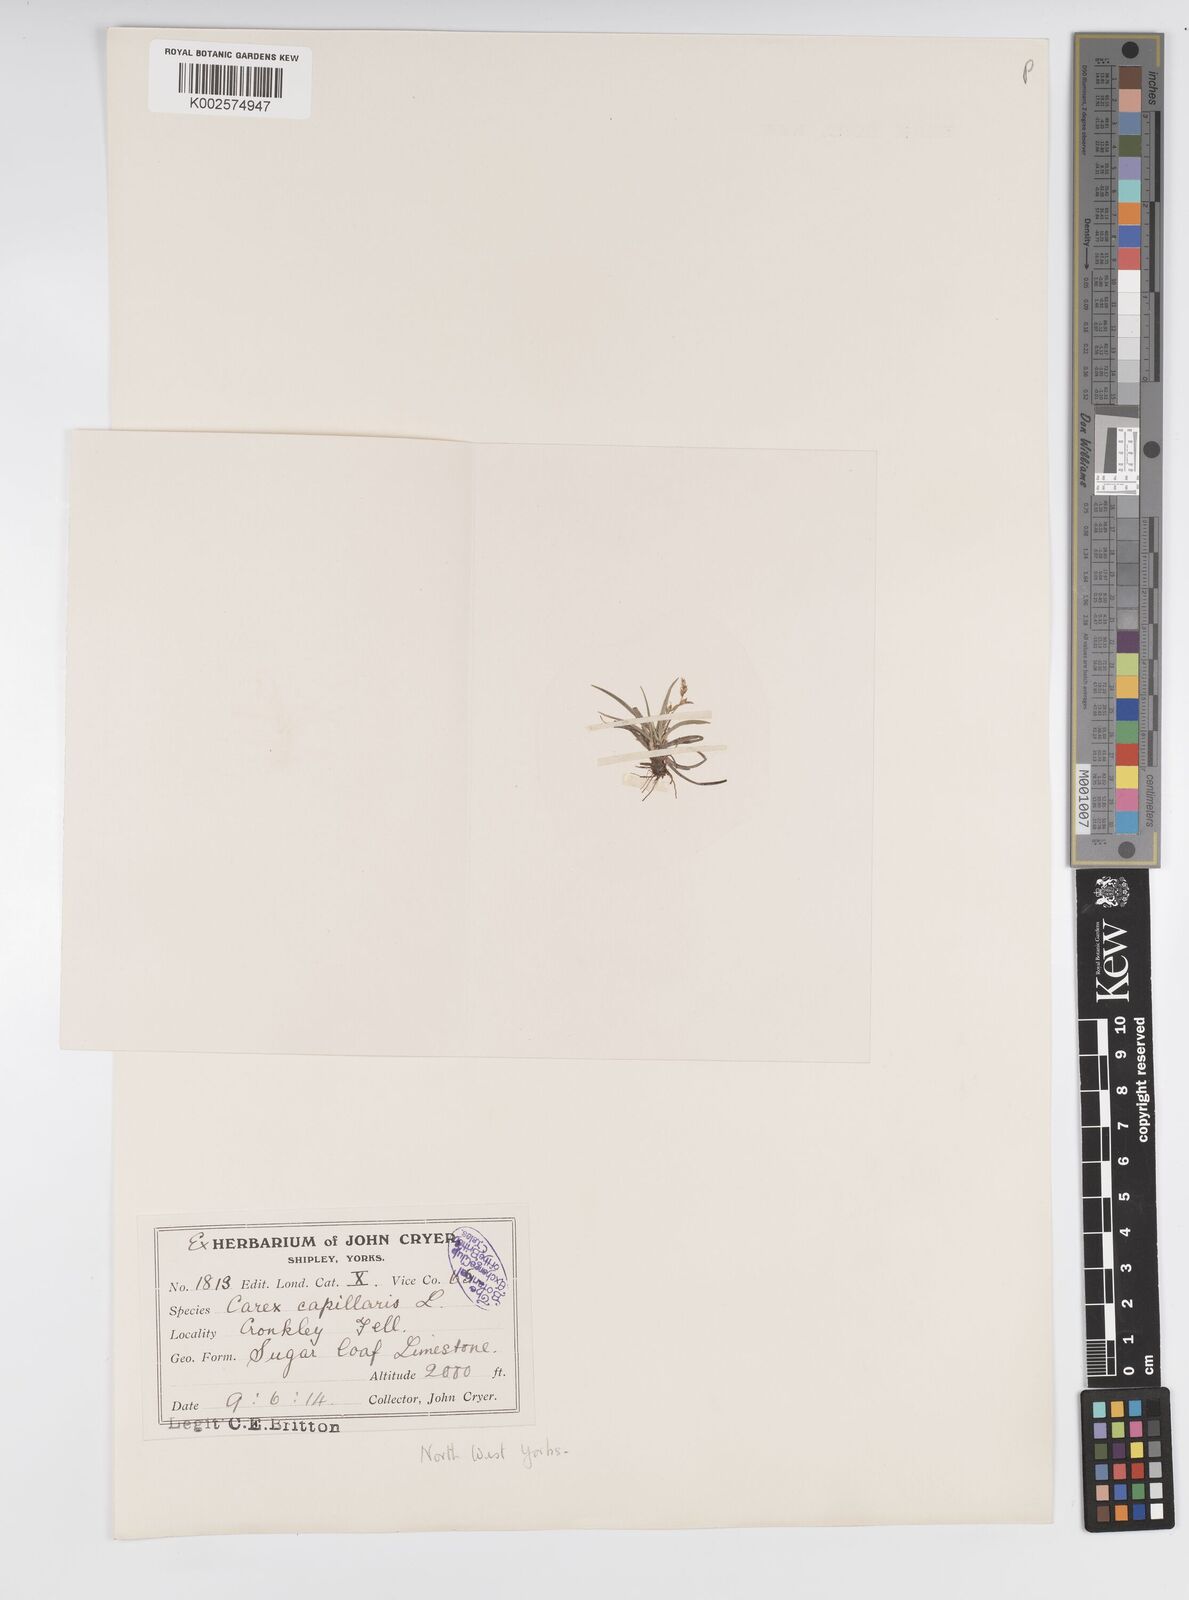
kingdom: Plantae
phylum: Tracheophyta
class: Liliopsida
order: Poales
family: Cyperaceae
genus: Carex
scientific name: Carex capillaris
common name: Hair sedge
